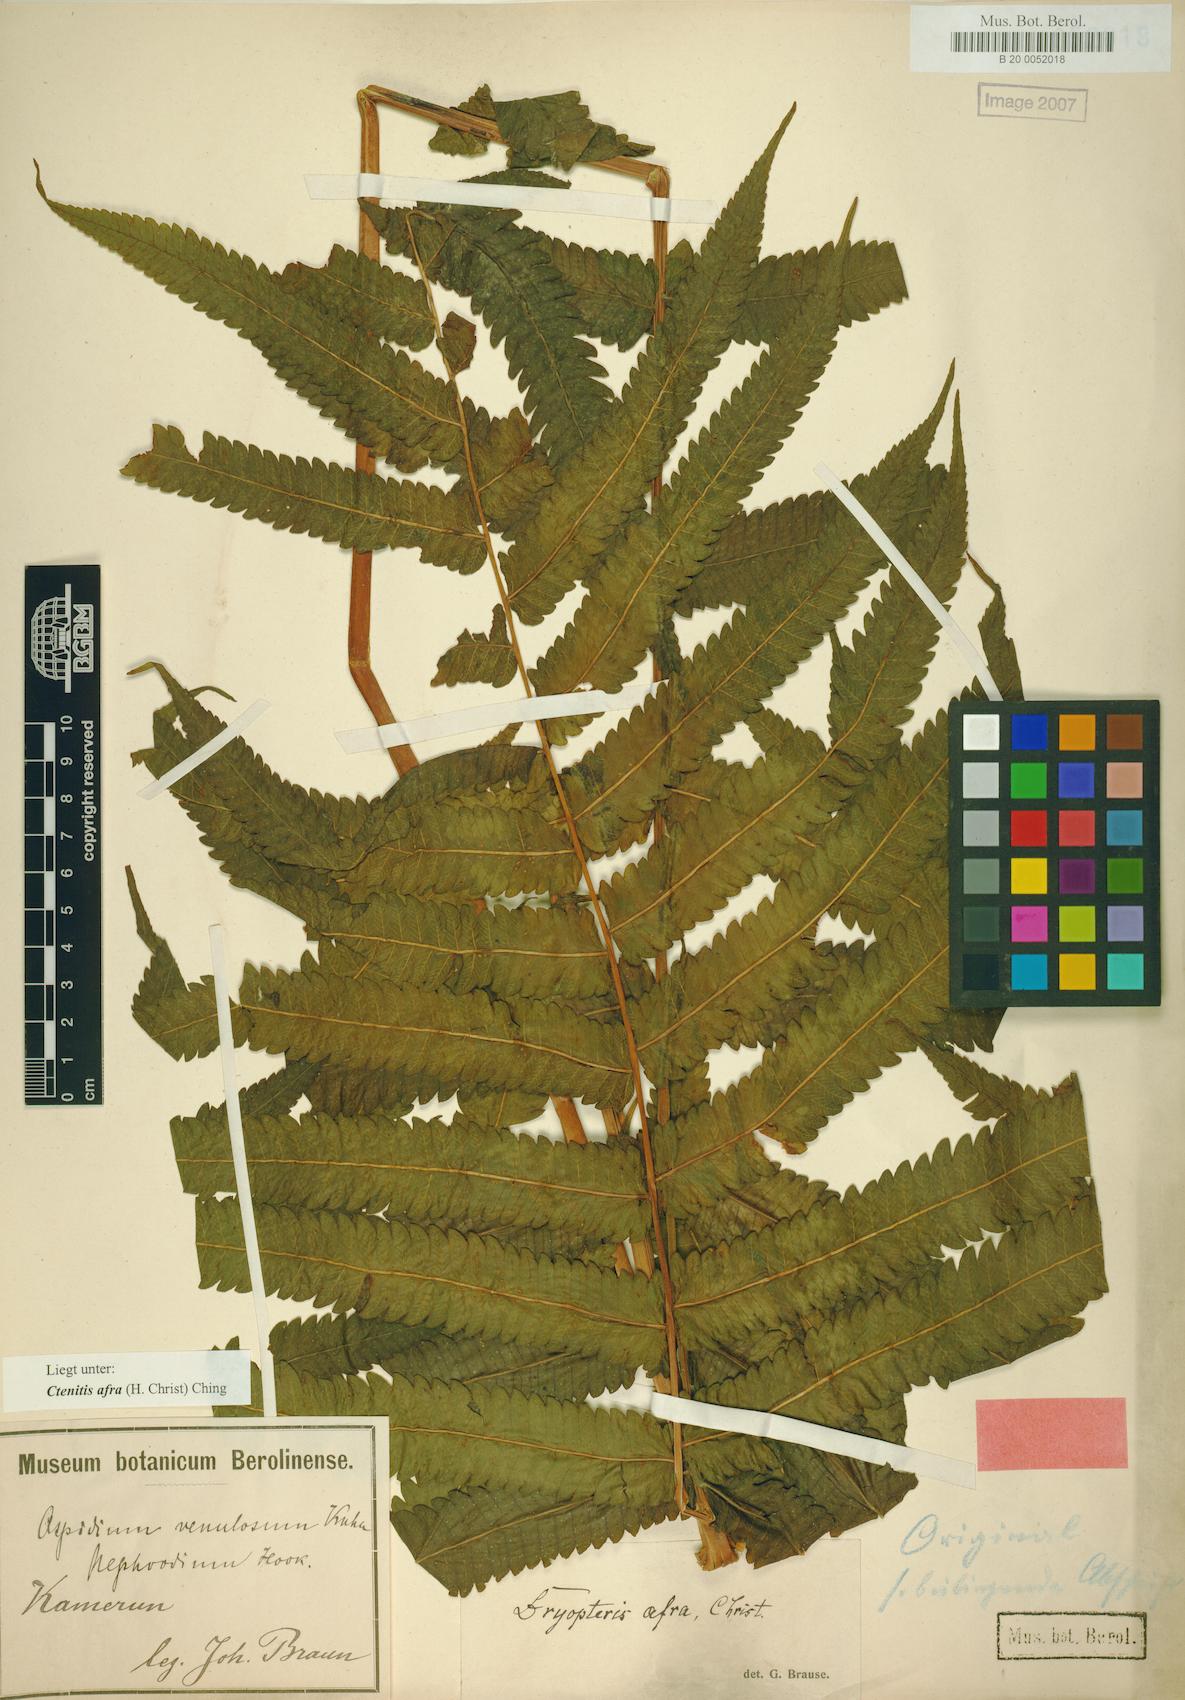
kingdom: Plantae
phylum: Tracheophyta
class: Polypodiopsida
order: Polypodiales
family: Thelypteridaceae
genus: Abacopteris
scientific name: Abacopteris afra
